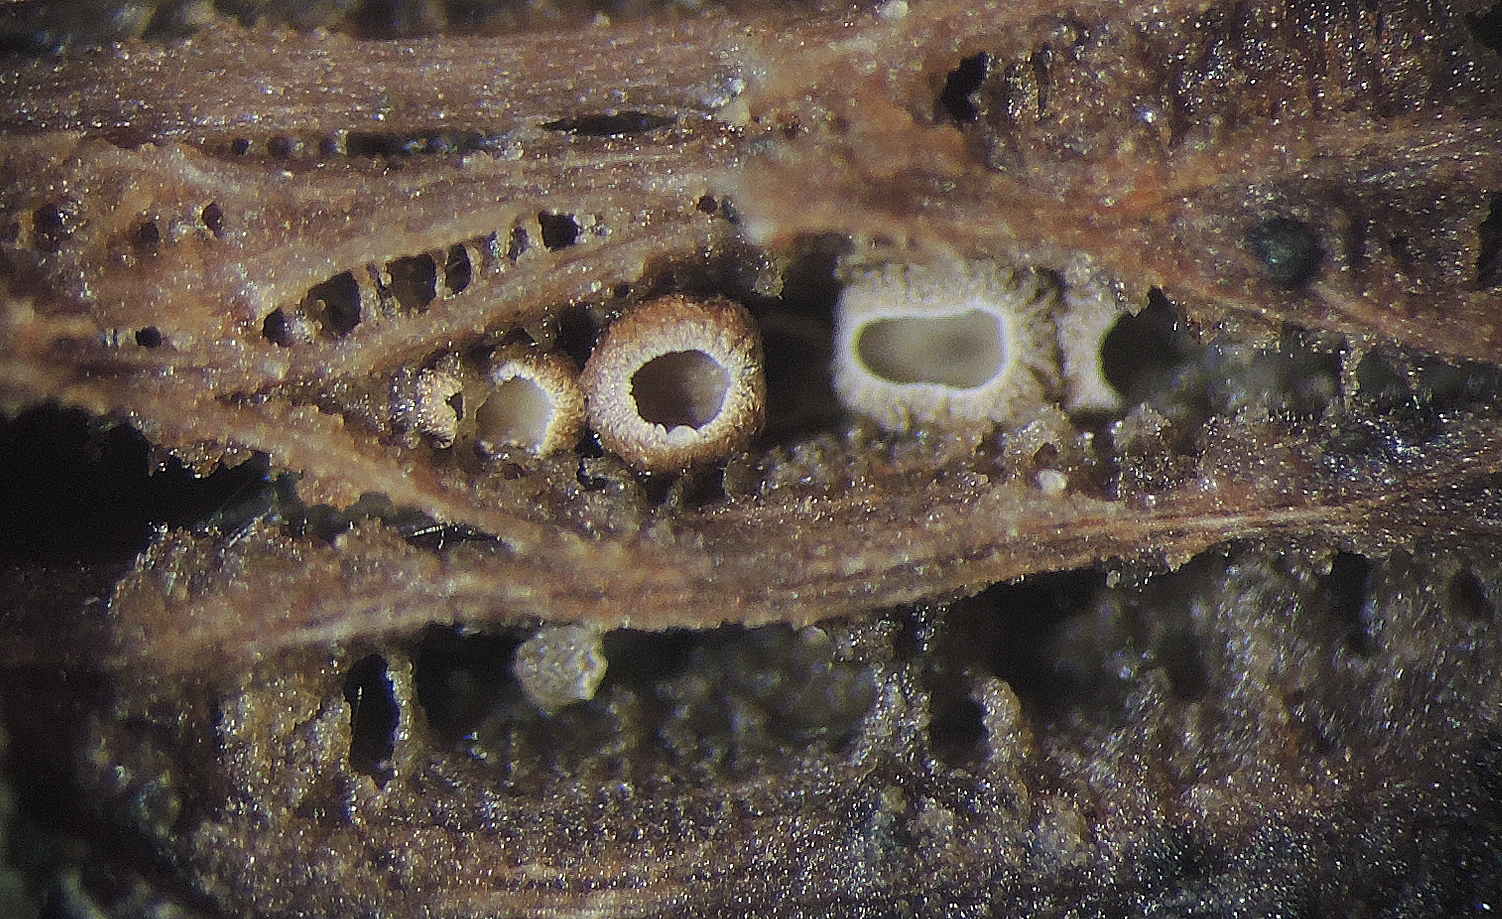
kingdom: Fungi
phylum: Basidiomycota
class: Agaricomycetes
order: Agaricales
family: Niaceae
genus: Merismodes
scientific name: Merismodes anomala
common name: almindelig læderskål
